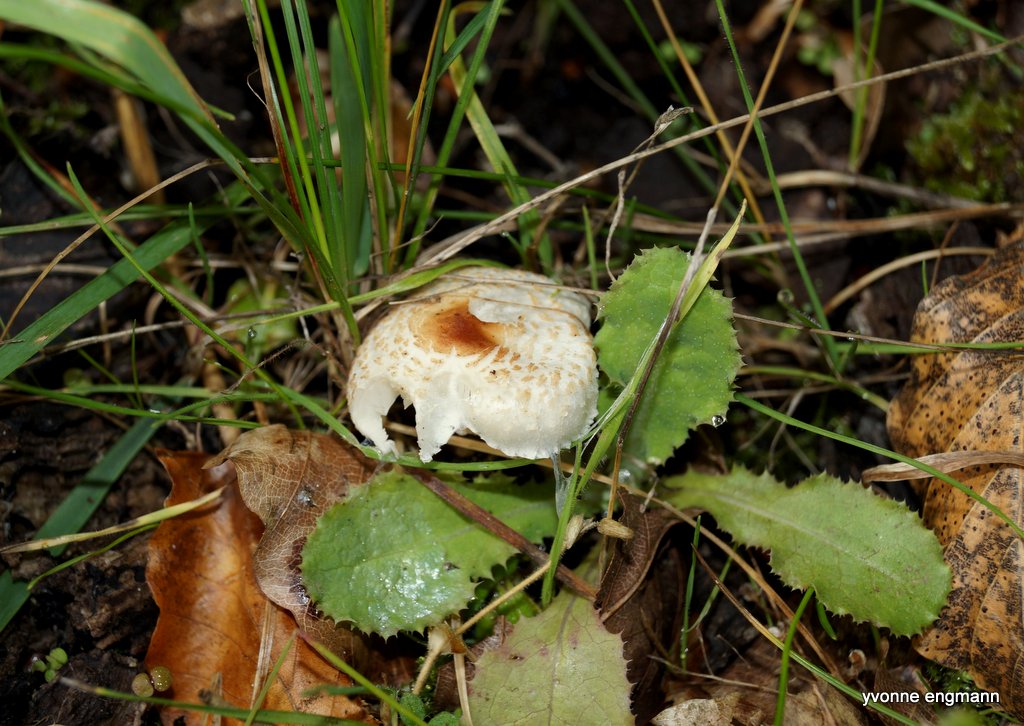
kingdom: Fungi
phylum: Basidiomycota
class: Agaricomycetes
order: Agaricales
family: Agaricaceae
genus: Lepiota
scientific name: Lepiota cristata
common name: stinkende parasolhat
